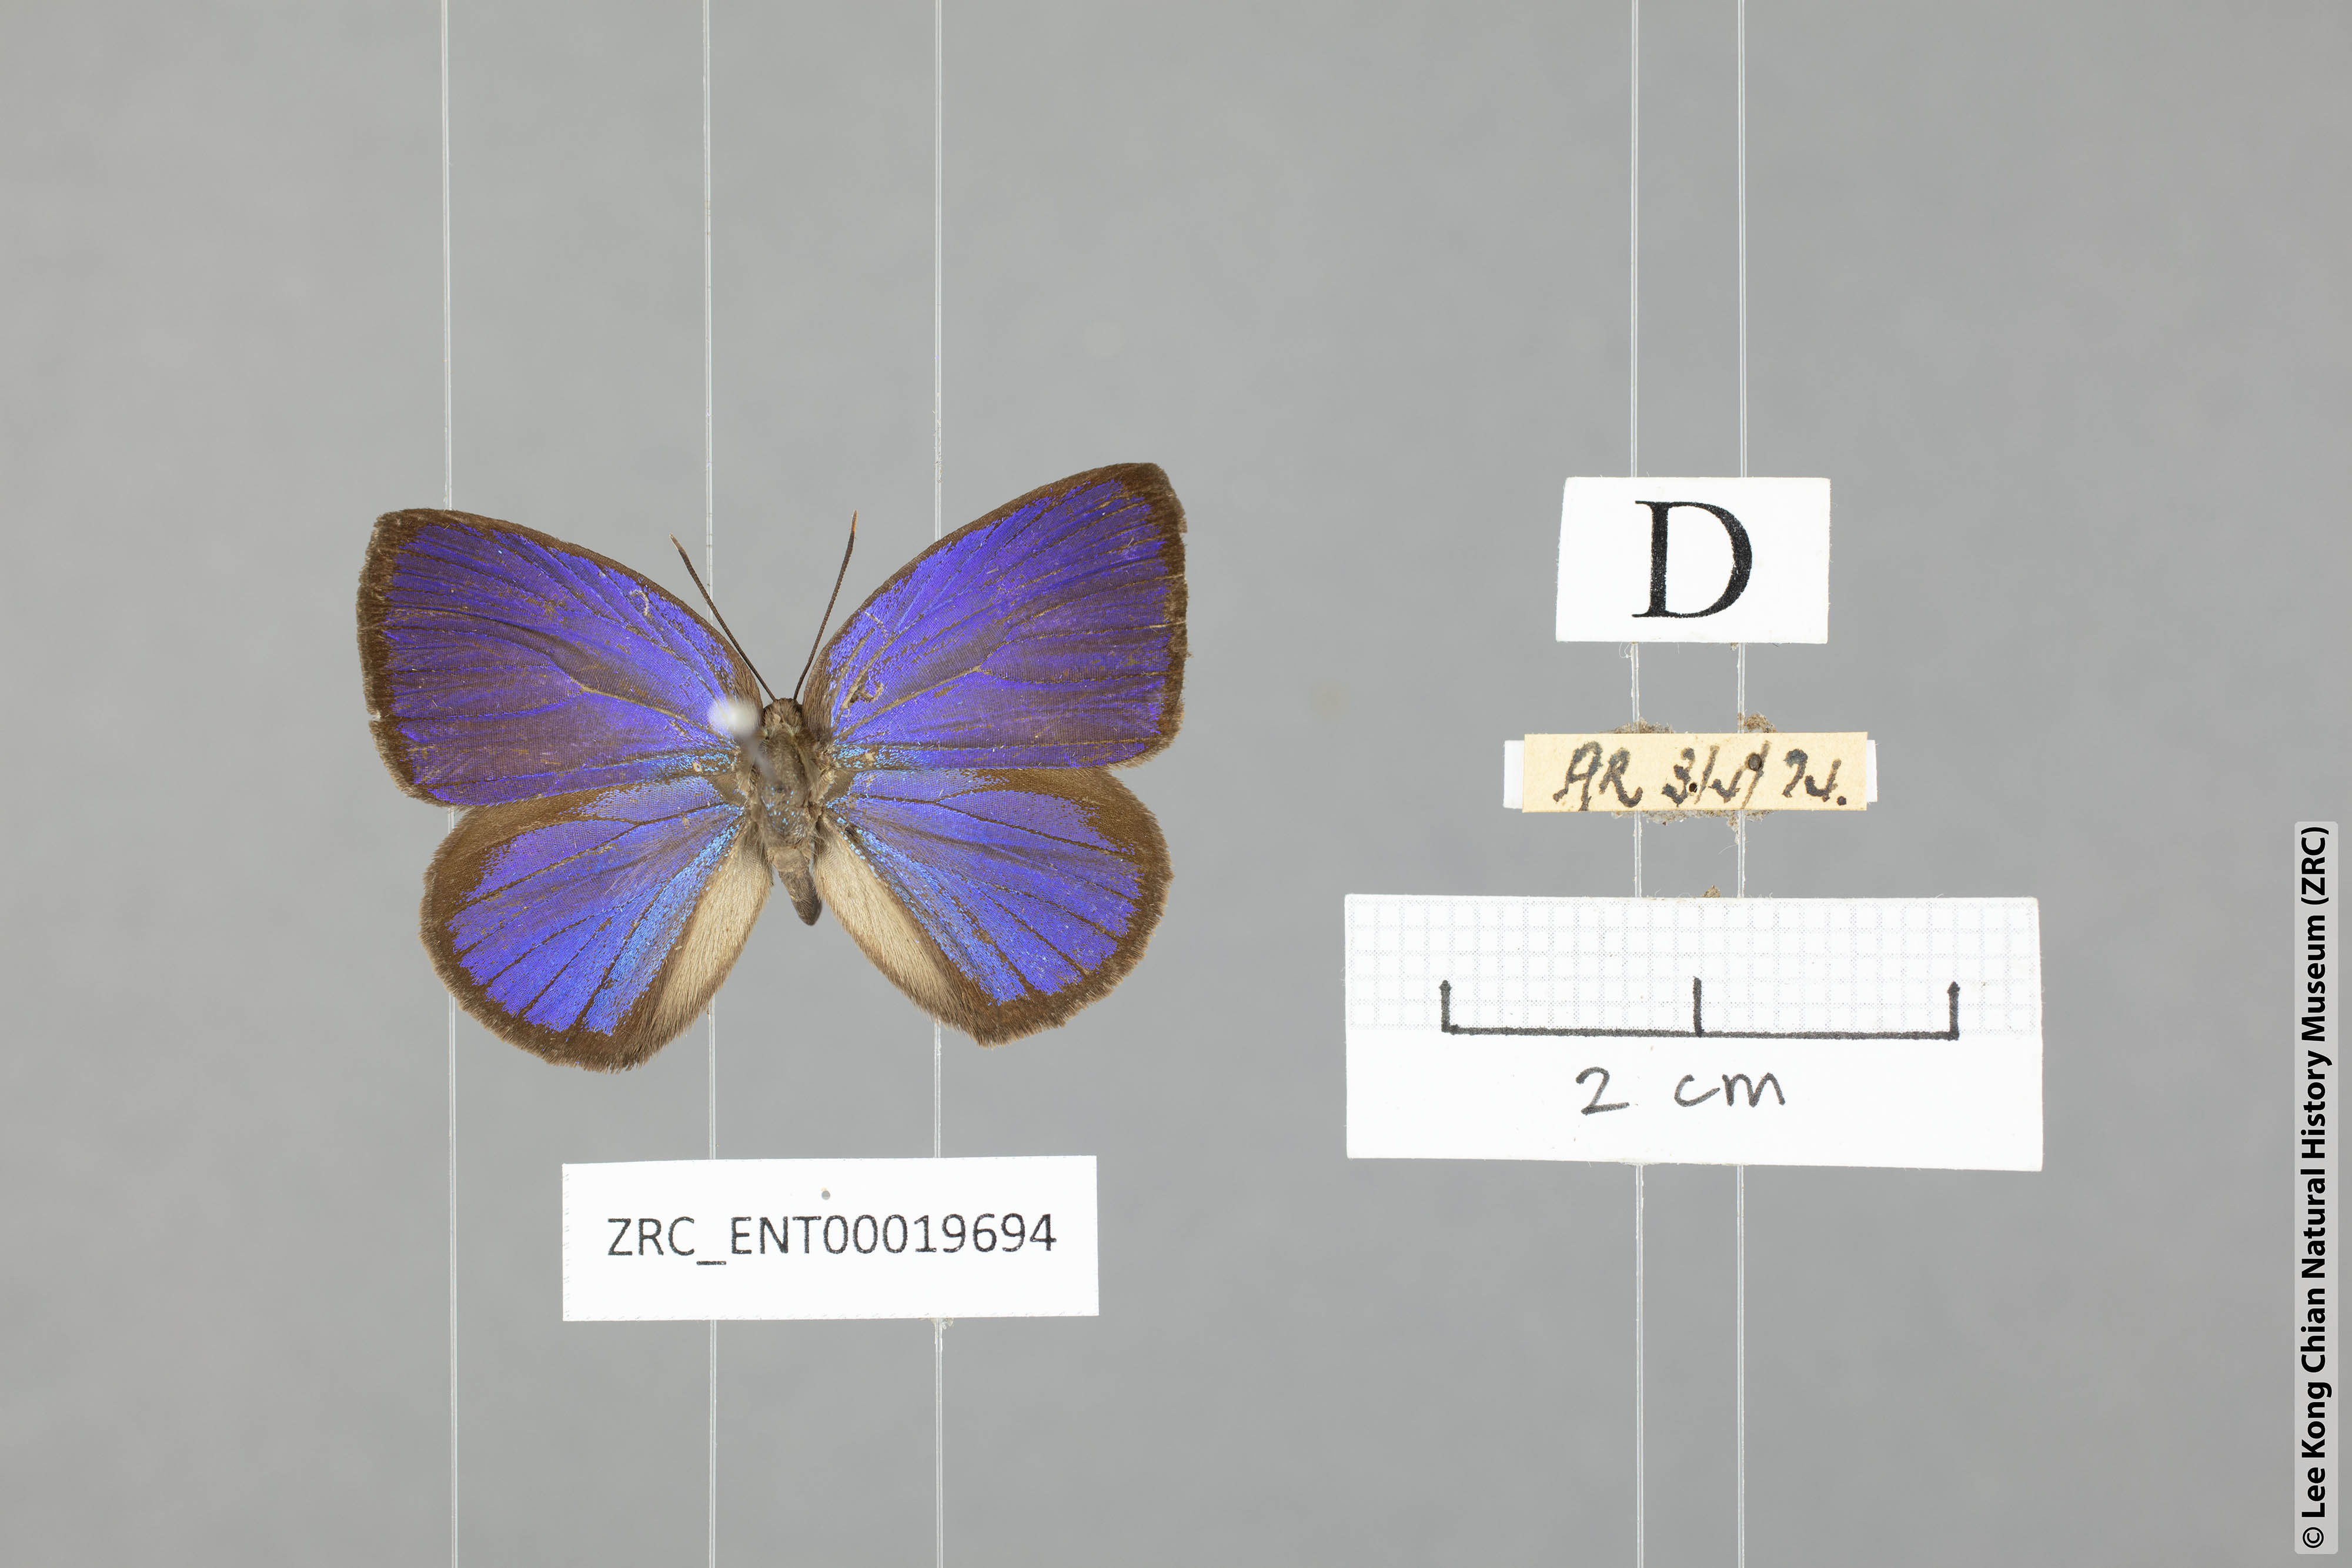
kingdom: Animalia
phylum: Arthropoda
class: Insecta
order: Lepidoptera
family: Lycaenidae
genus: Arhopala
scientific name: Arhopala muta
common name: Mutal oakblue
